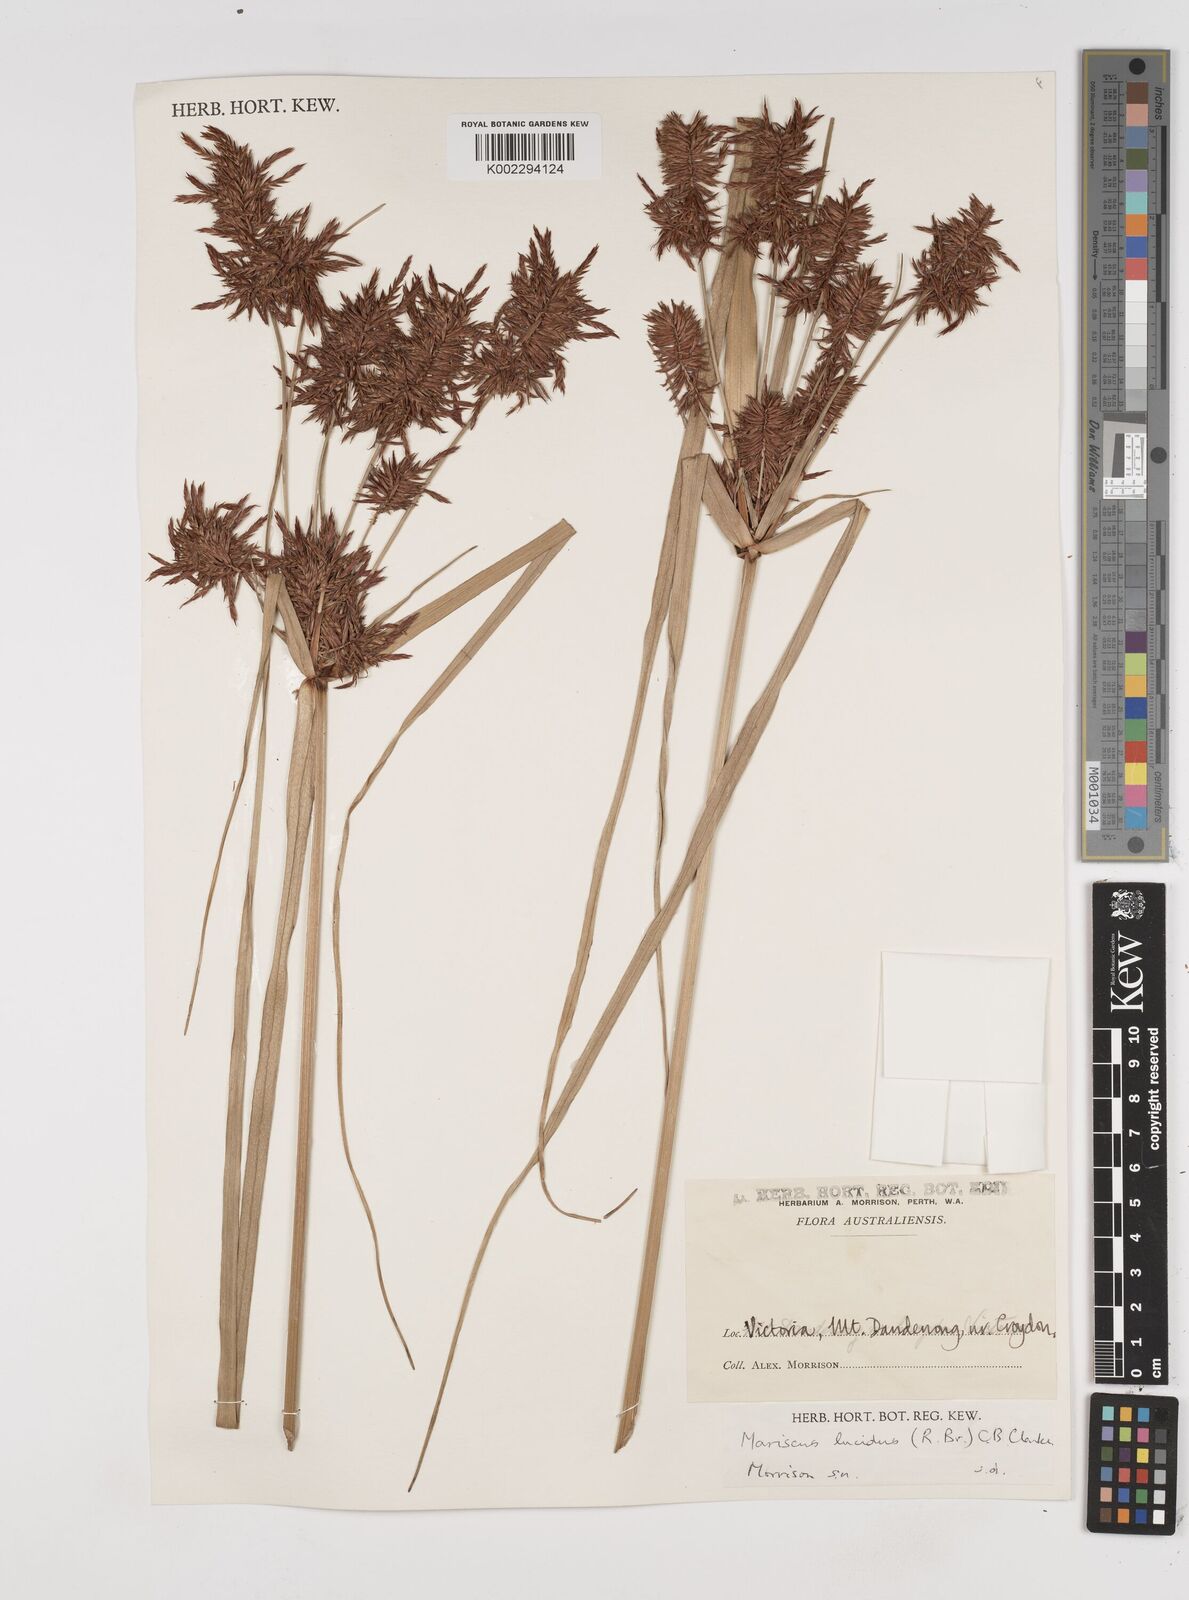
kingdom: Plantae
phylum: Tracheophyta
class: Liliopsida
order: Poales
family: Cyperaceae
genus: Cyperus
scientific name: Cyperus lucidus
